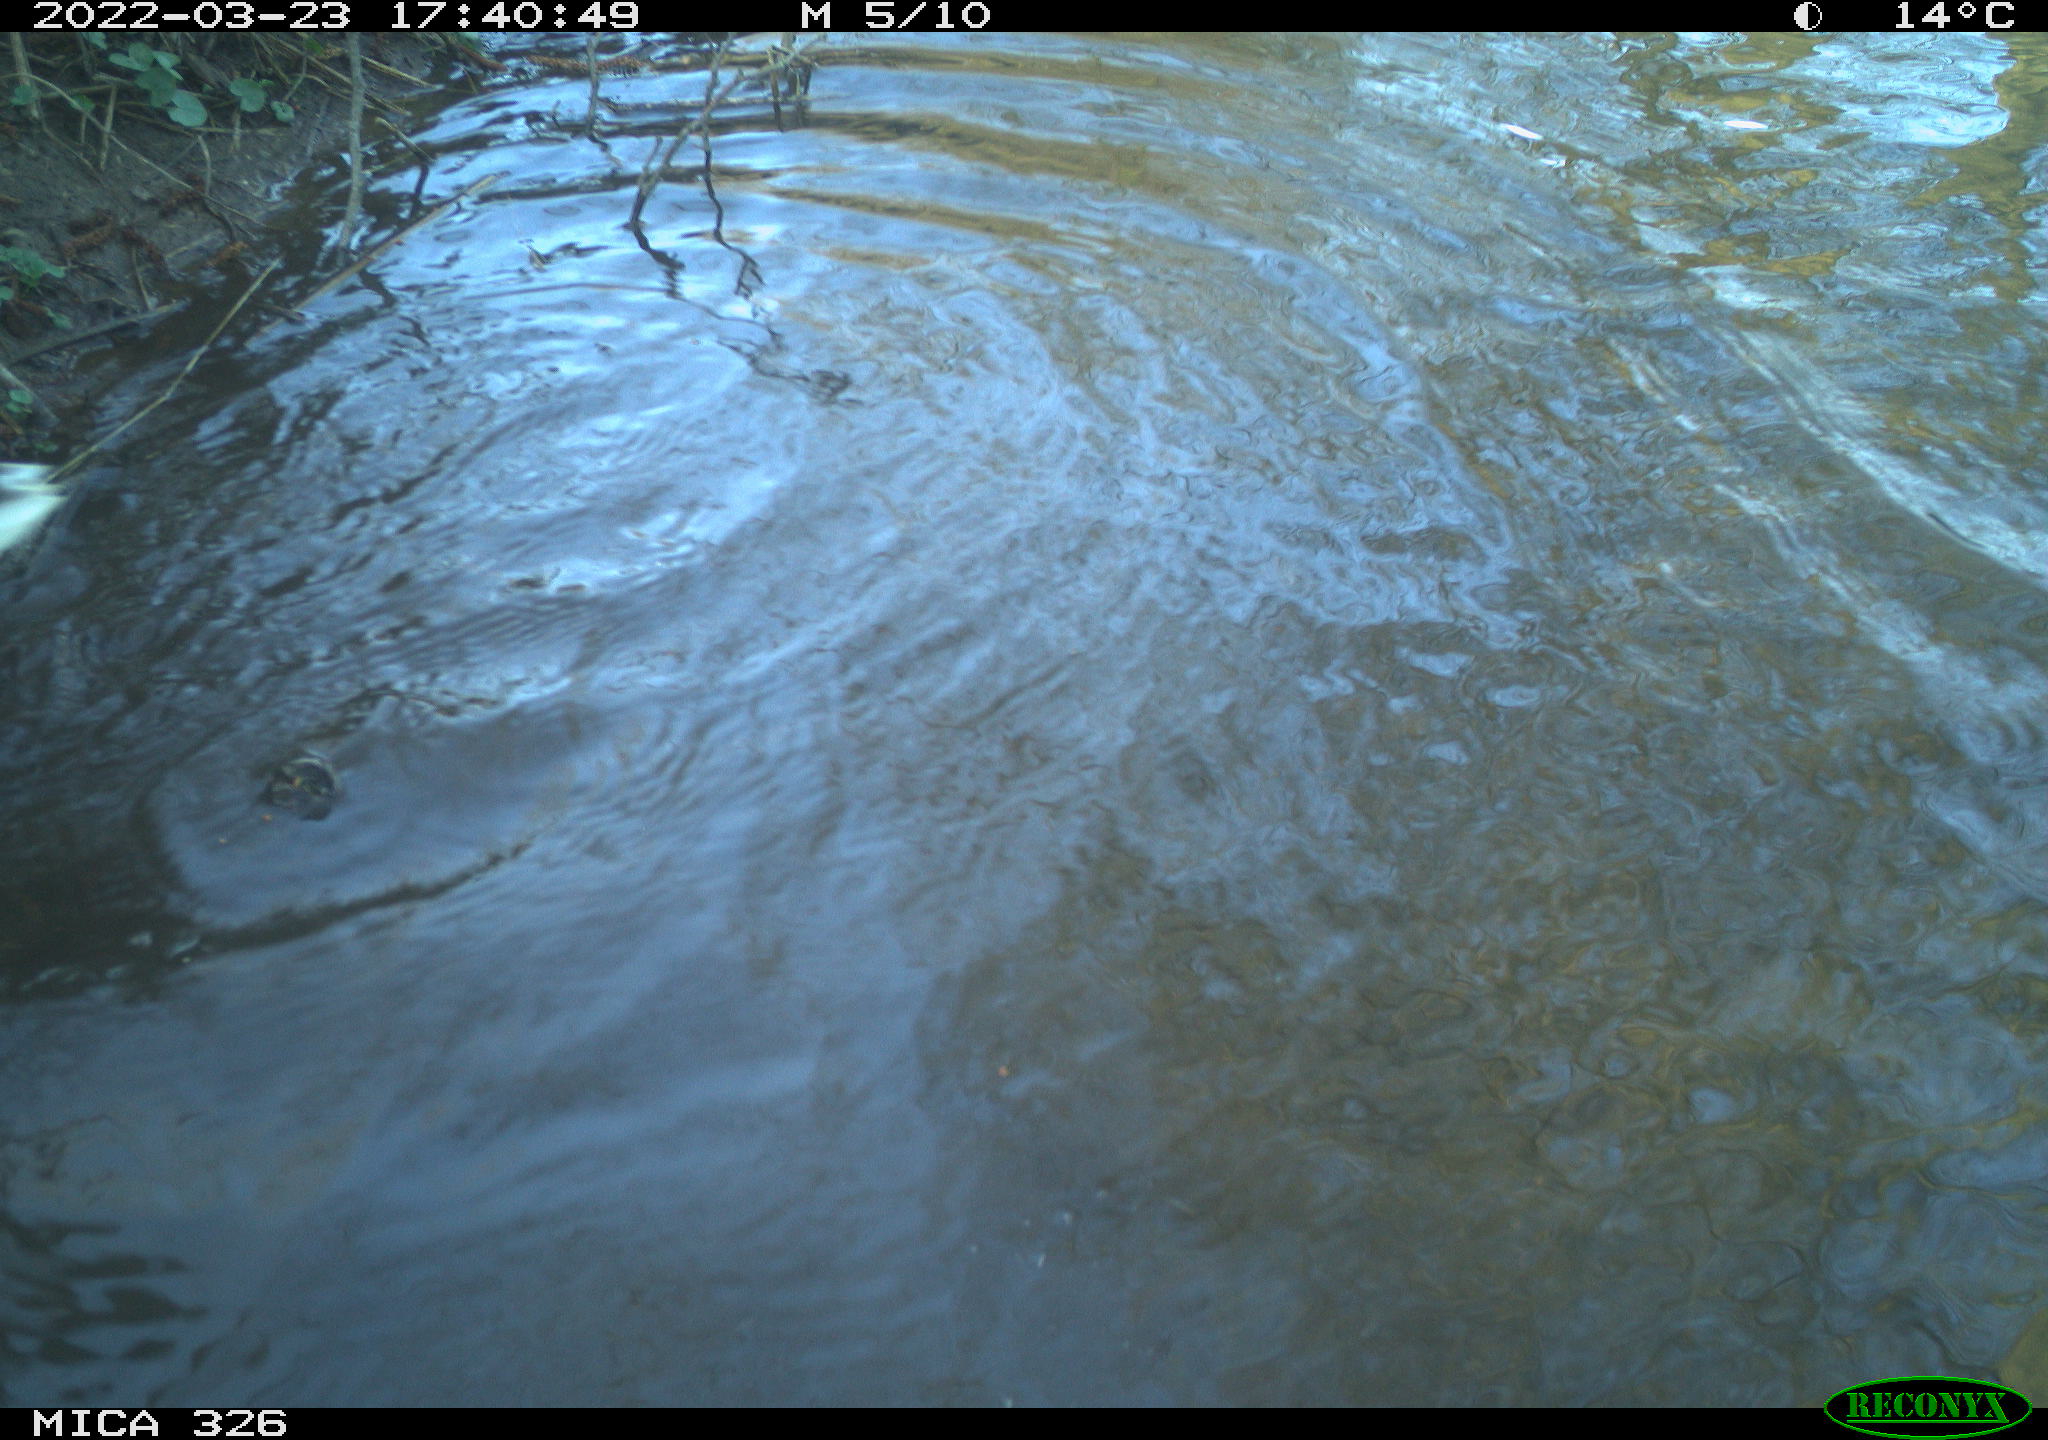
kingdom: Animalia
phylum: Chordata
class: Aves
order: Anseriformes
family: Anatidae
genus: Anas
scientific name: Anas platyrhynchos
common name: Mallard
